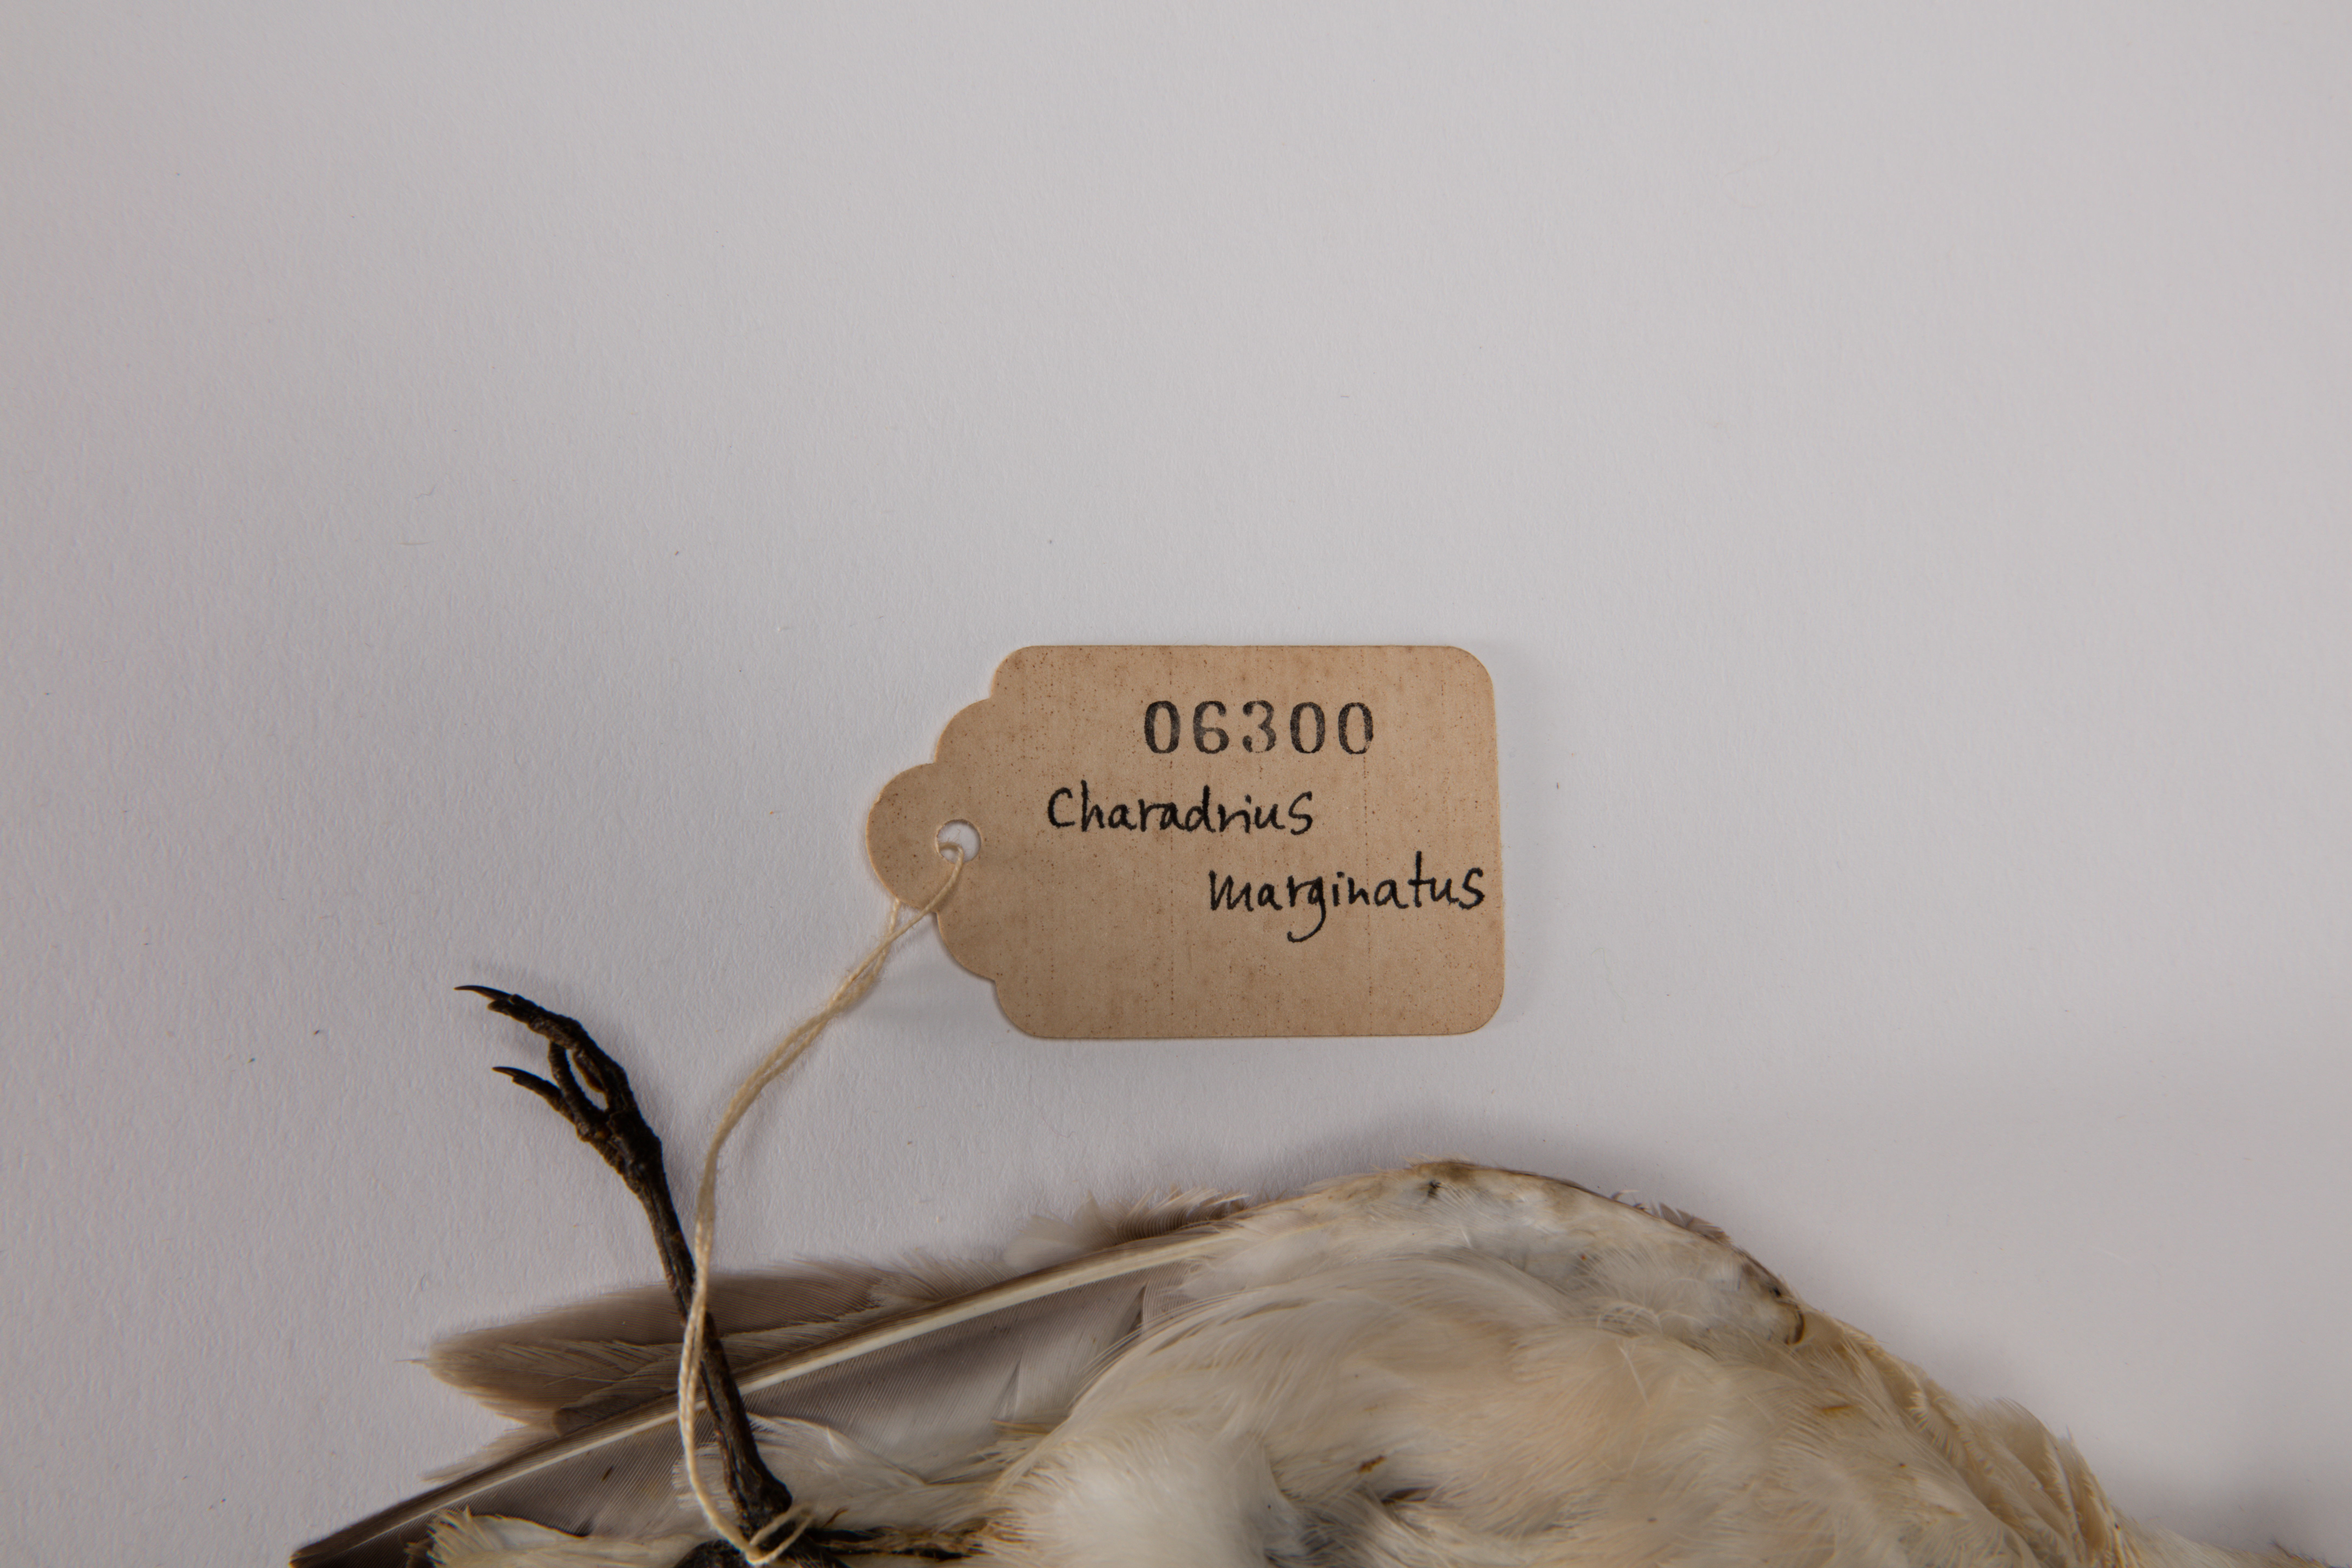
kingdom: Animalia
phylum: Chordata
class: Aves
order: Charadriiformes
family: Charadriidae
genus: Charadrius
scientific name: Charadrius marginatus
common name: White-fronted plover
